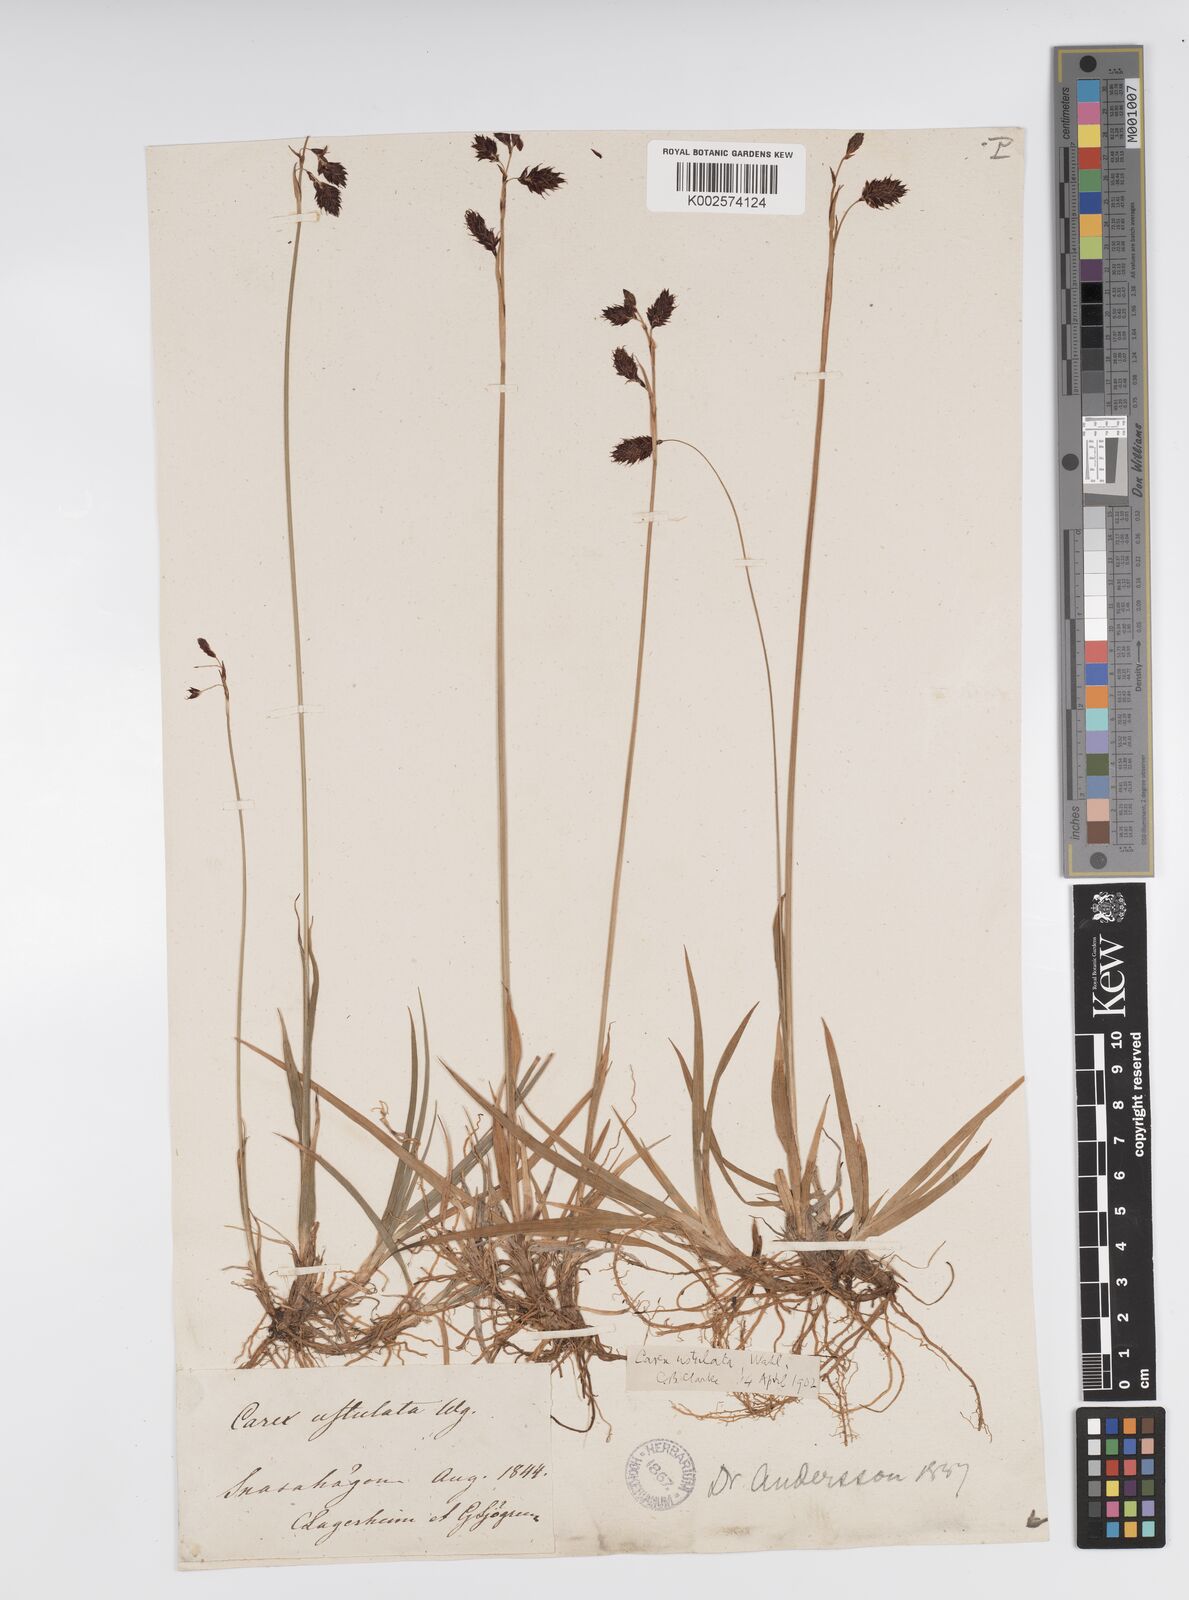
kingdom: Plantae
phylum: Tracheophyta
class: Liliopsida
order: Poales
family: Cyperaceae
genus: Carex
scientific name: Carex atrofusca
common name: Scorched alpine-sedge
